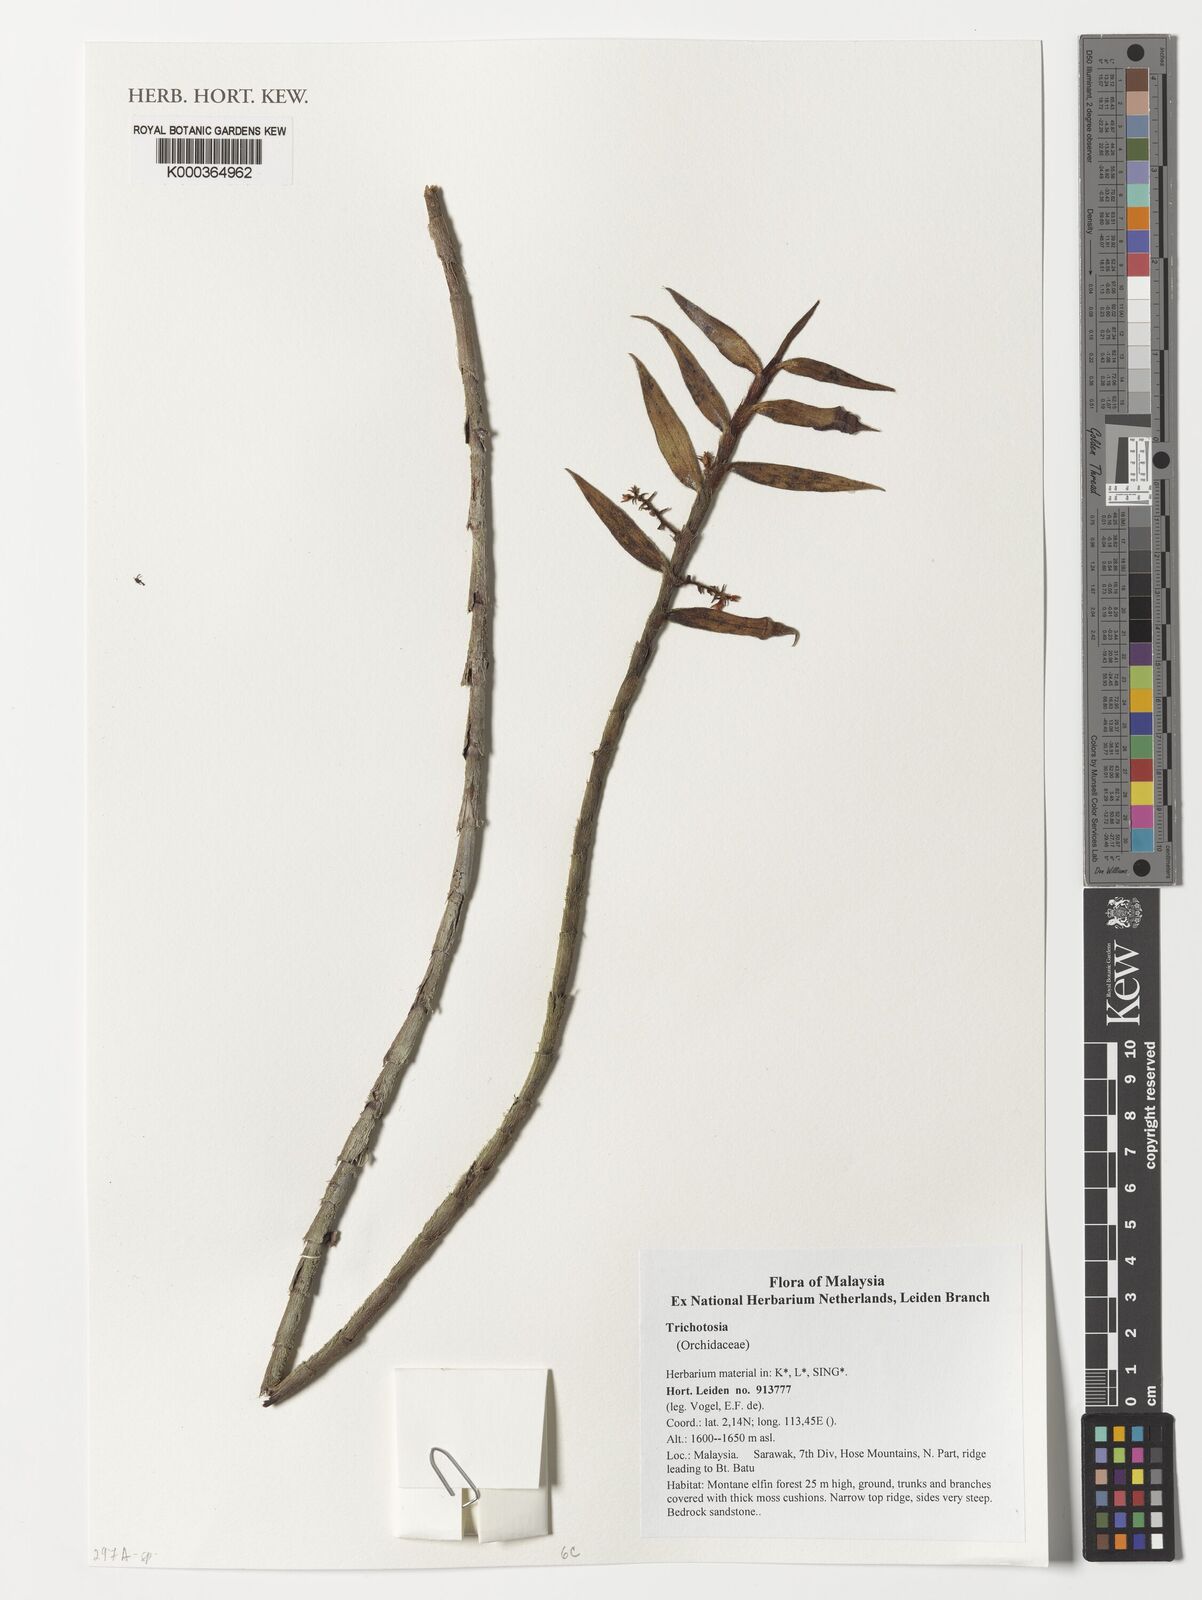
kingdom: Plantae
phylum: Tracheophyta
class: Liliopsida
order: Asparagales
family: Orchidaceae
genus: Trichotosia
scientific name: Trichotosia
